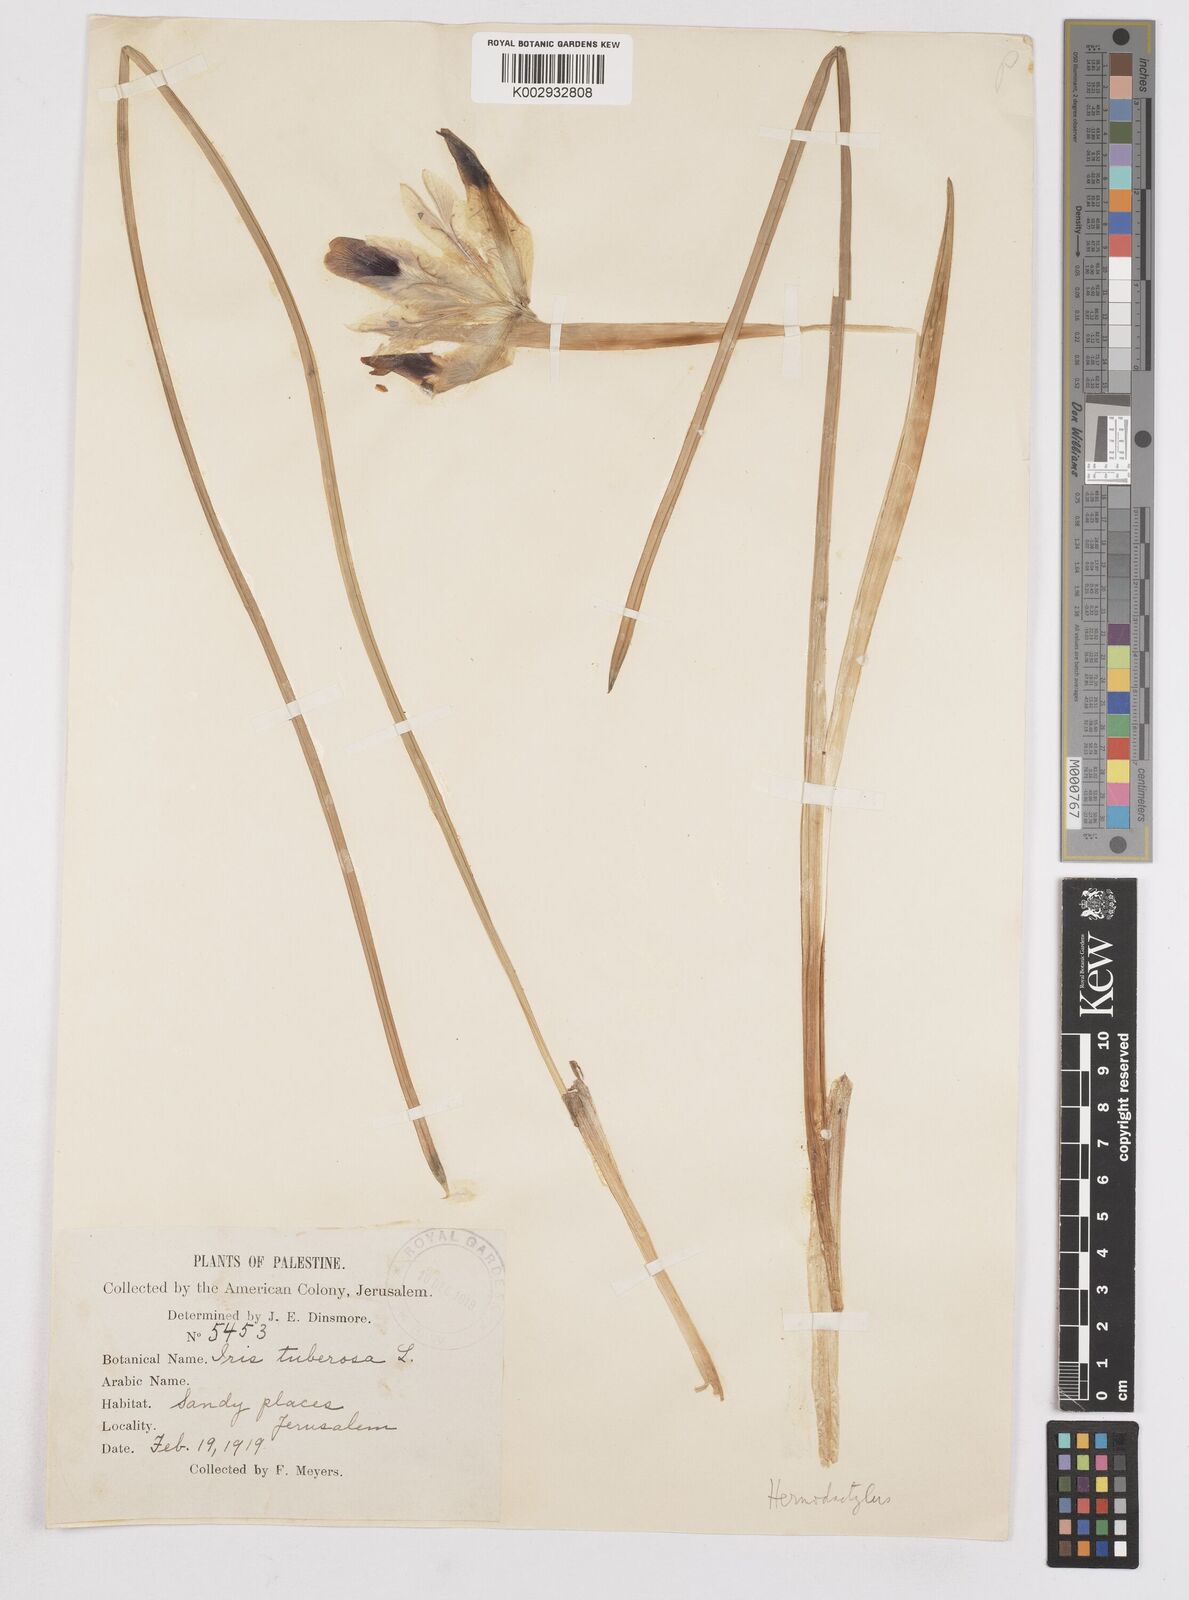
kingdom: Plantae
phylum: Tracheophyta
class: Liliopsida
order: Asparagales
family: Iridaceae
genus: Iris
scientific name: Iris tuberosa
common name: Snake's-head iris
